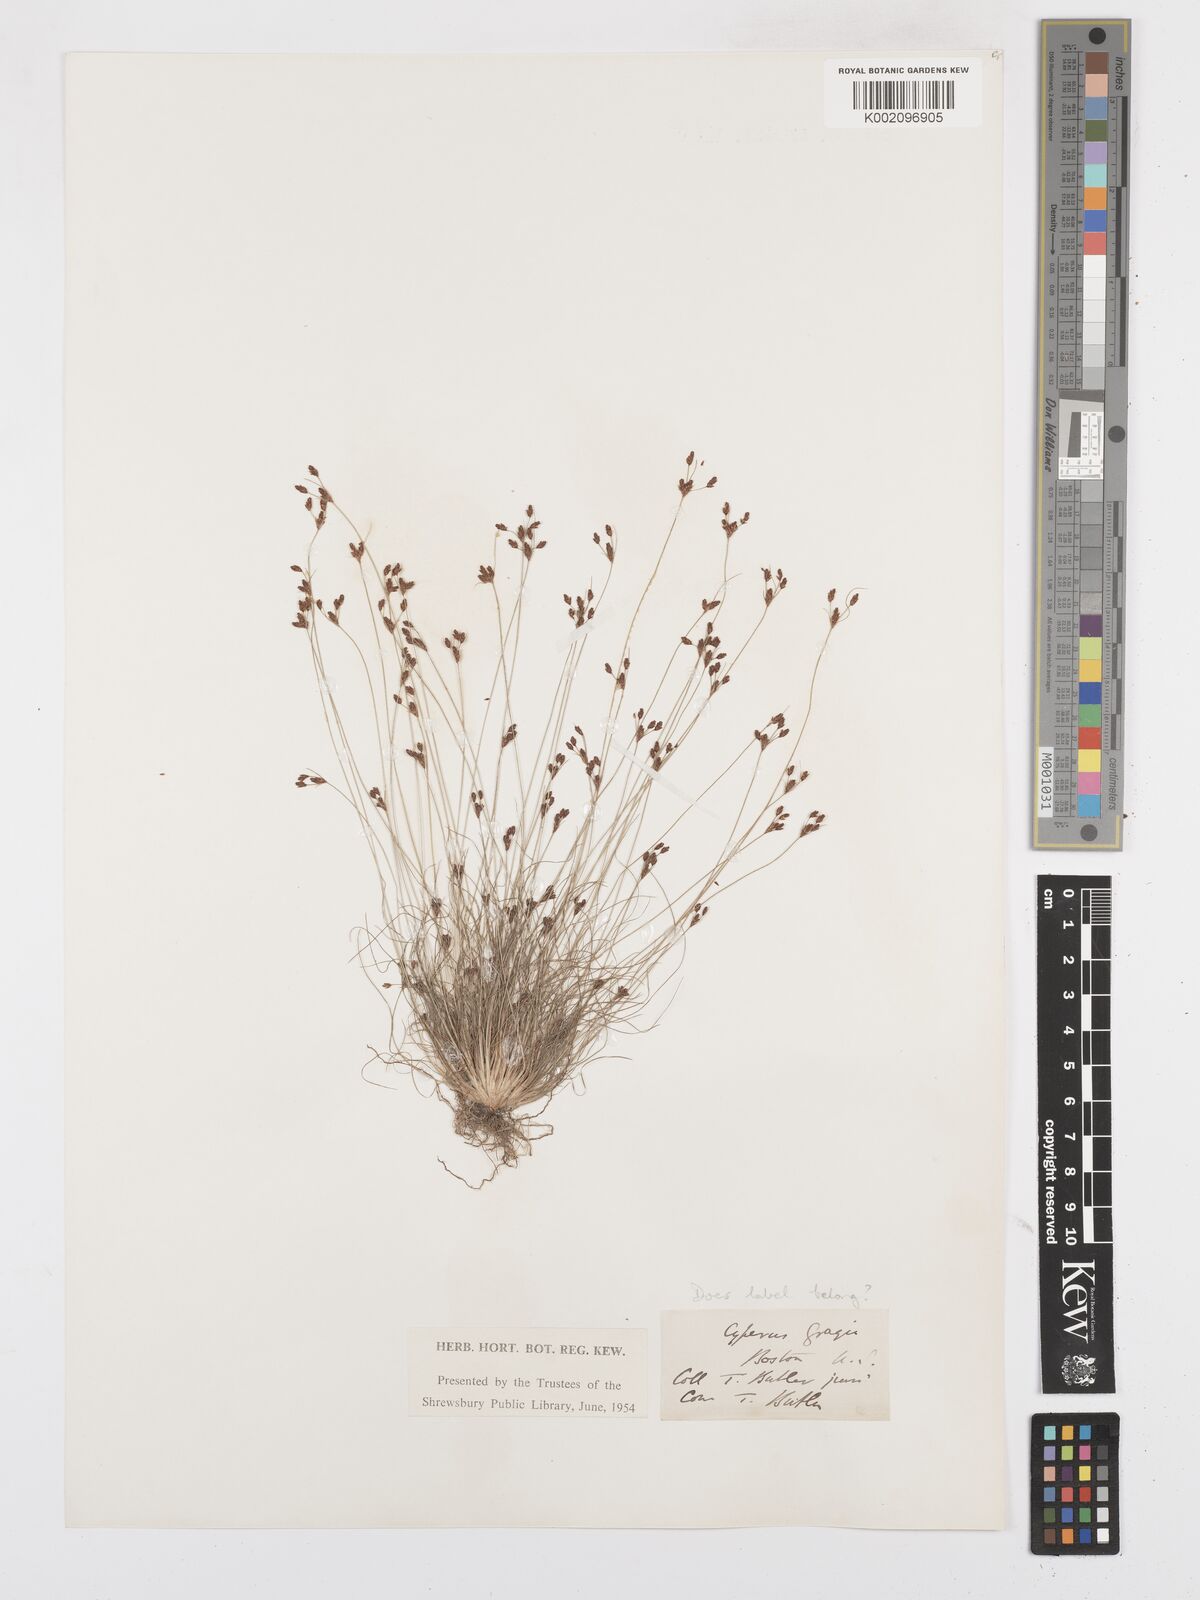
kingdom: Plantae
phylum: Tracheophyta
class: Liliopsida
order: Poales
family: Cyperaceae
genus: Bulbostylis
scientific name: Bulbostylis capillaris
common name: Densetuft hairsedge
